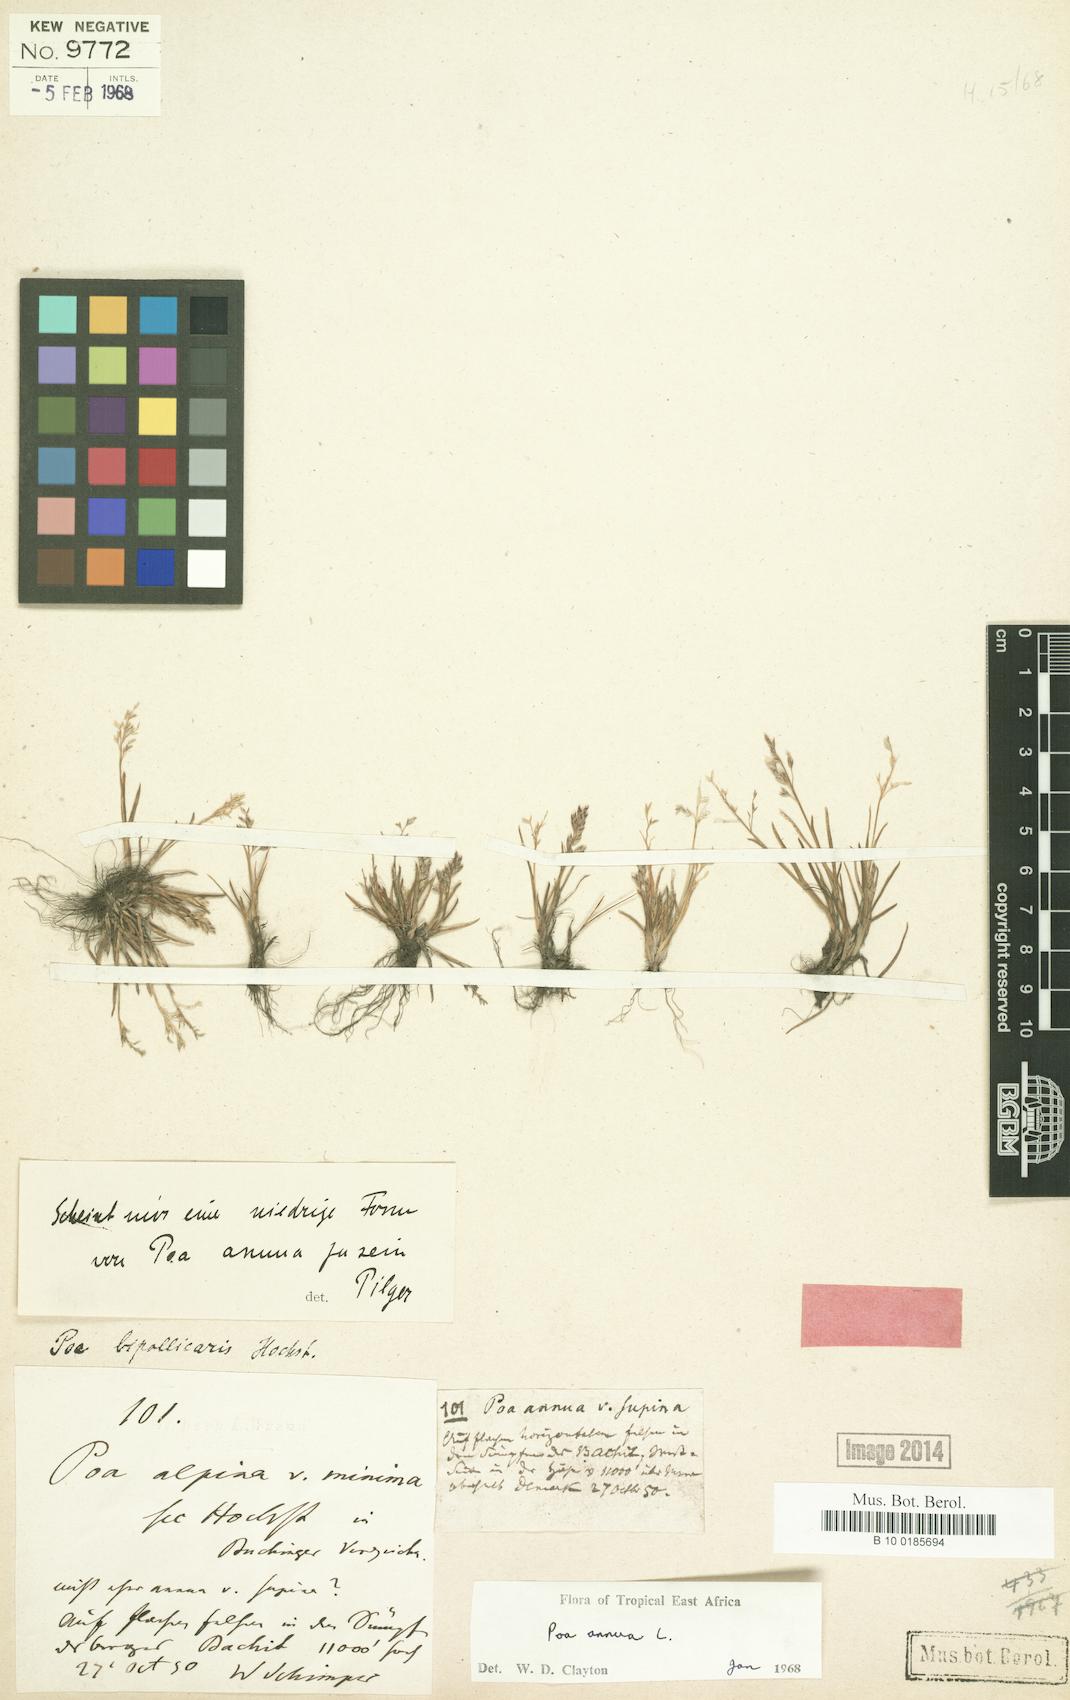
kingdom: Plantae
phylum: Tracheophyta
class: Liliopsida
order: Poales
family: Poaceae
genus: Poa
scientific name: Poa annua
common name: Annual bluegrass
